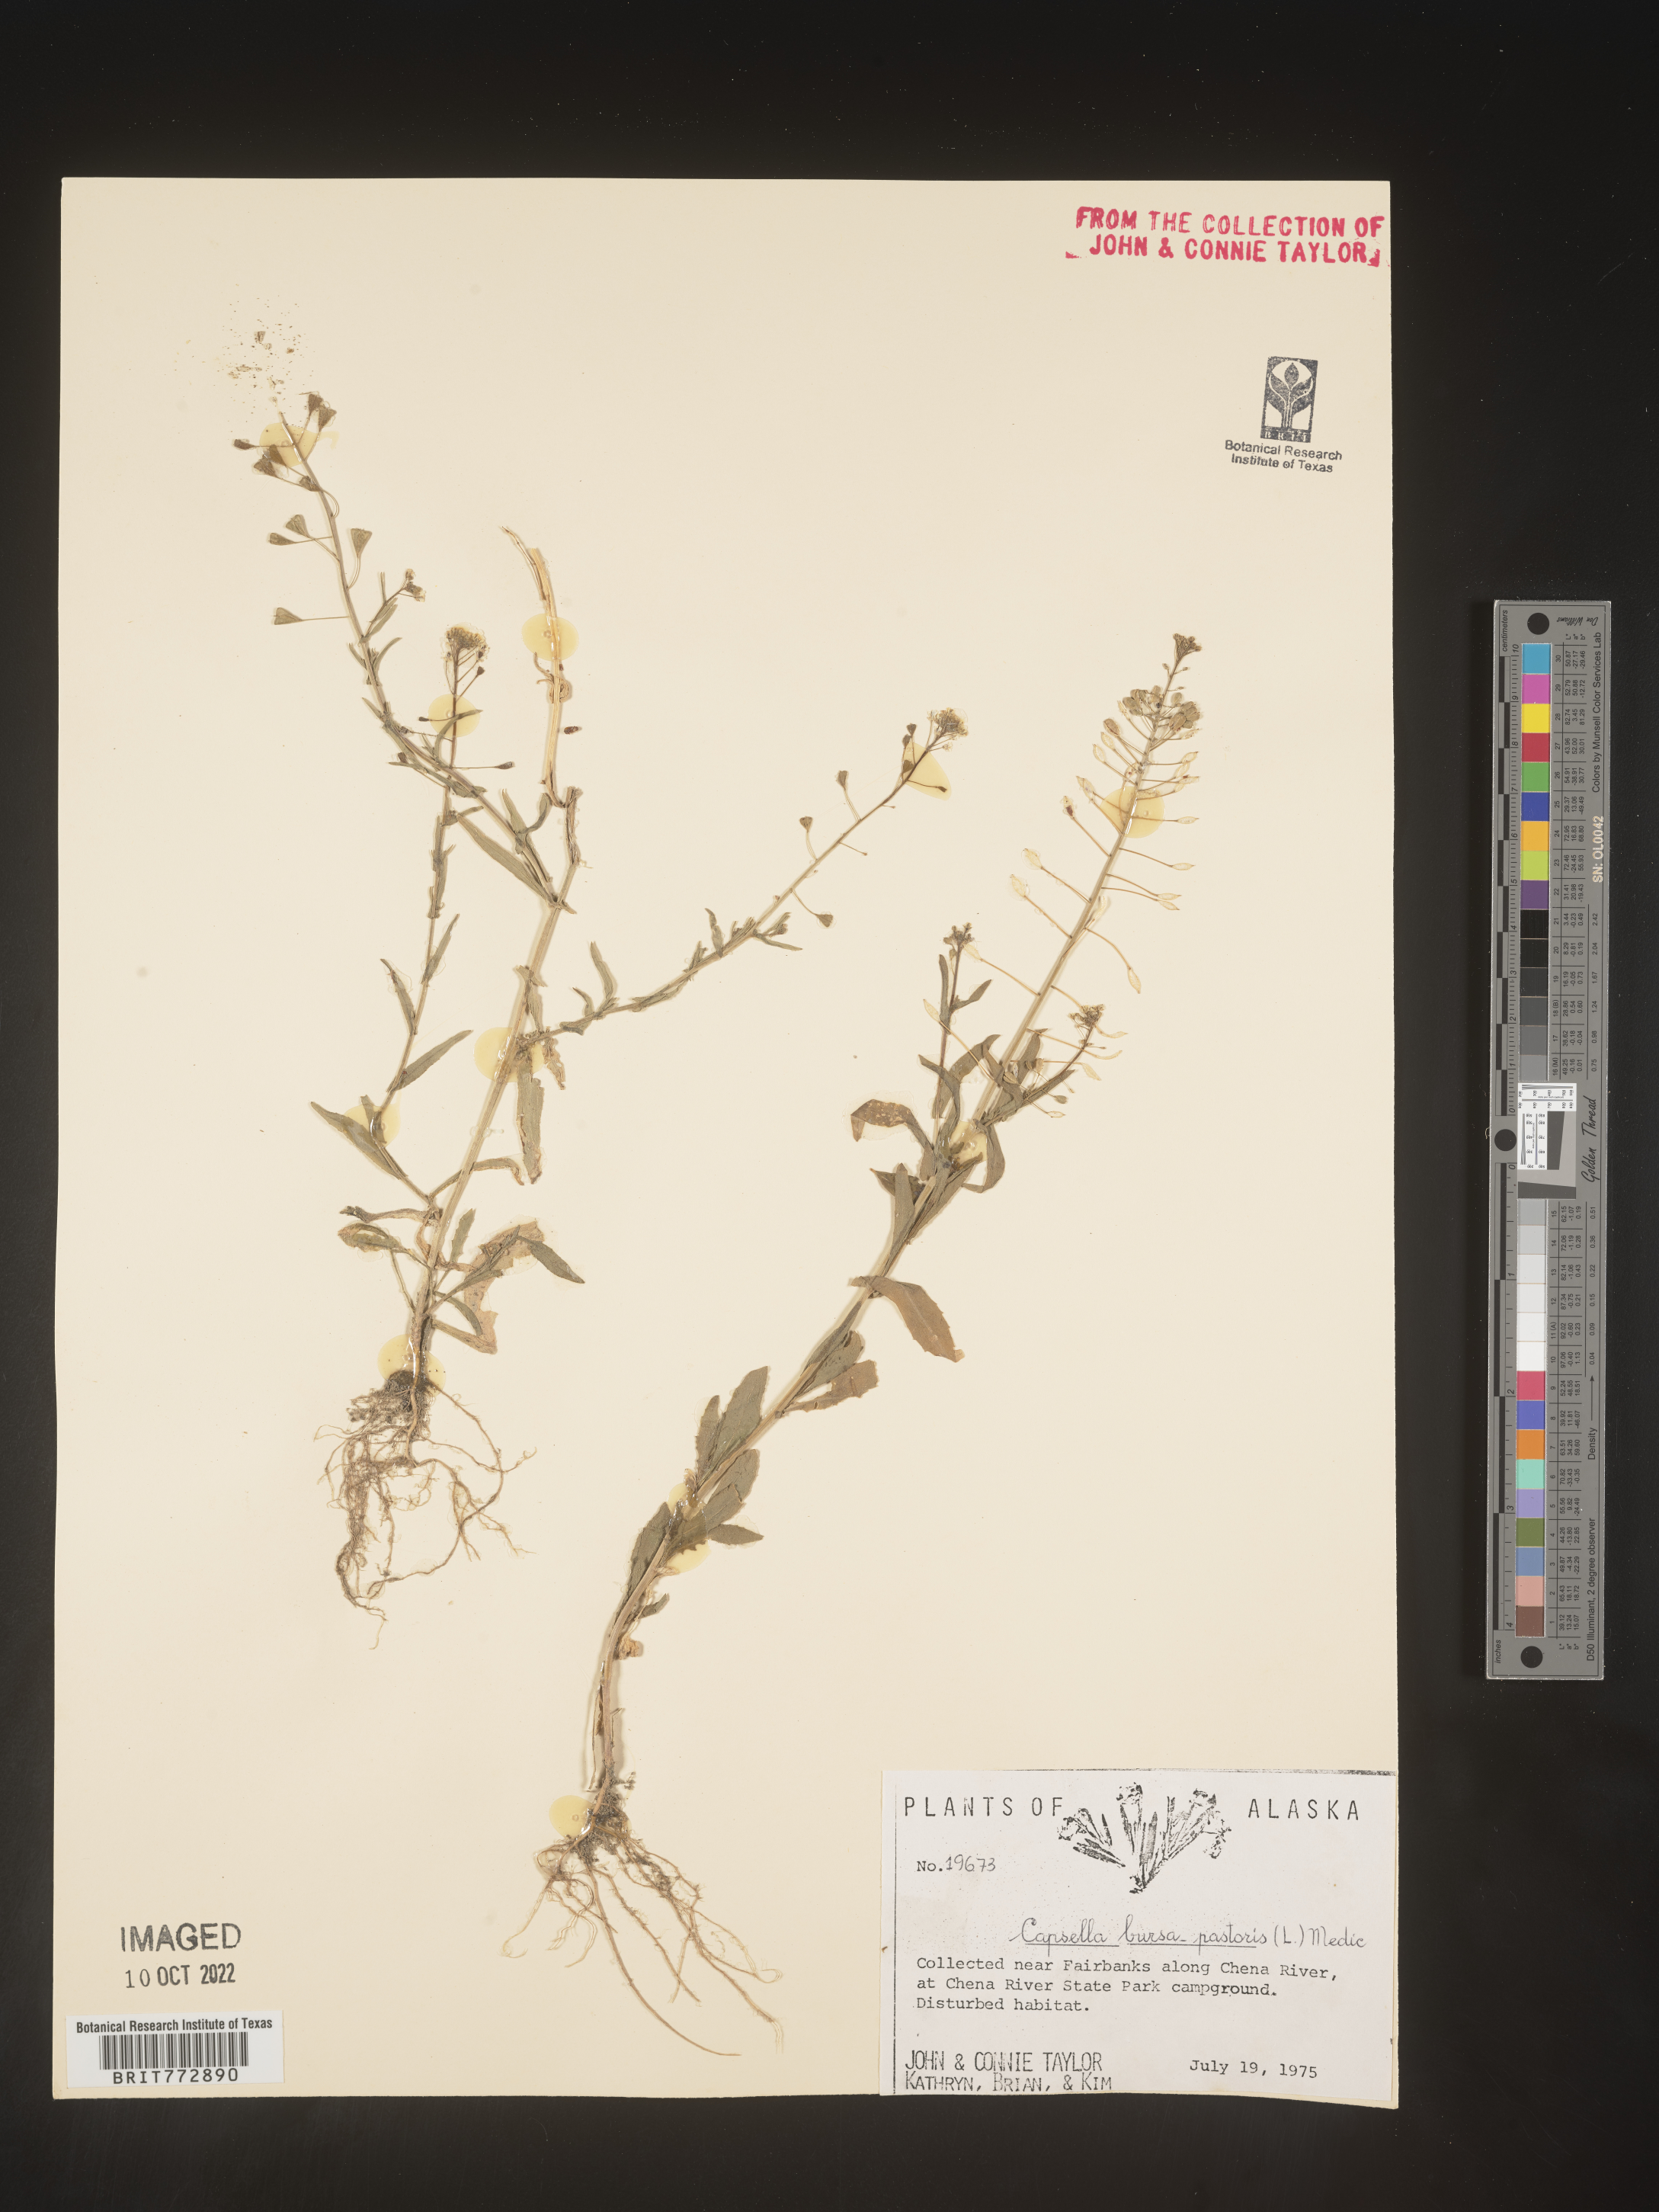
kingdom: Plantae
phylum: Tracheophyta
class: Magnoliopsida
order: Brassicales
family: Brassicaceae
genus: Capsella
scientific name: Capsella bursa-pastoris
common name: Shepherd's purse
